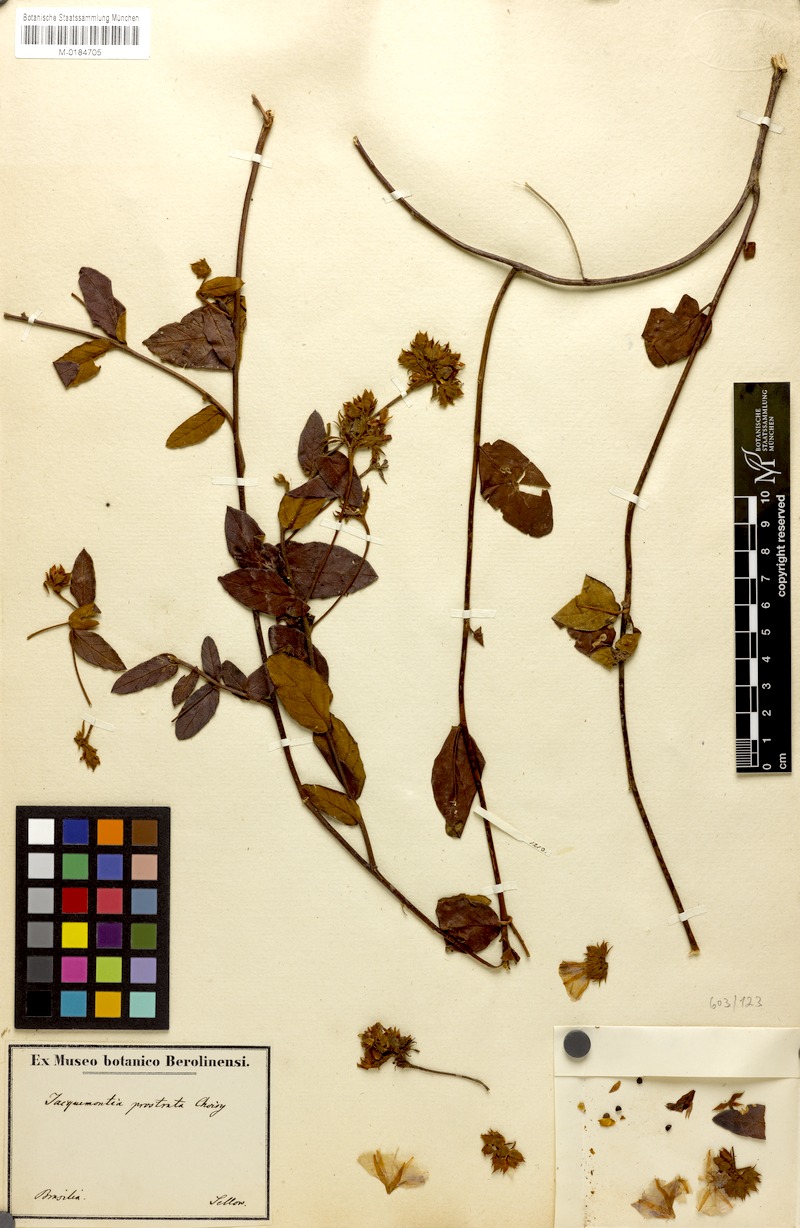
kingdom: Plantae
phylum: Tracheophyta
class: Magnoliopsida
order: Solanales
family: Convolvulaceae
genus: Jacquemontia
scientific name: Jacquemontia prostrata
